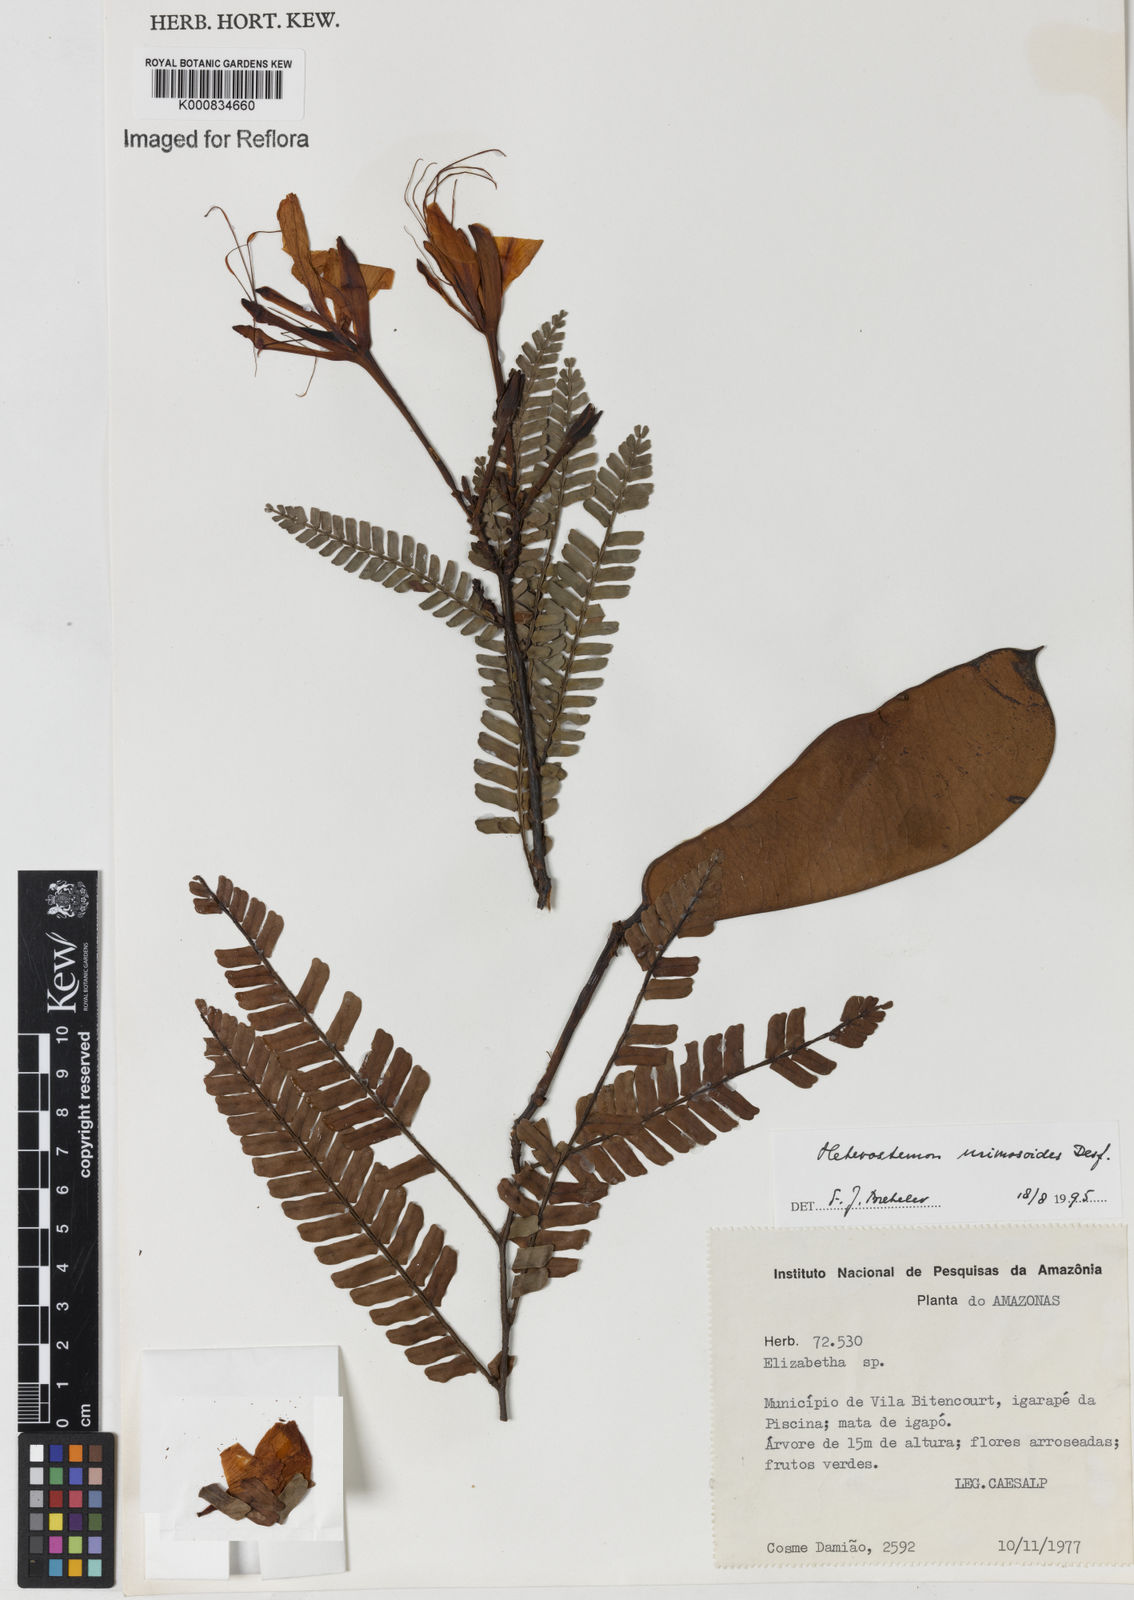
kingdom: Plantae
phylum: Tracheophyta
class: Magnoliopsida
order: Fabales
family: Fabaceae
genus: Heterostemon
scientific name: Heterostemon mimosoides
